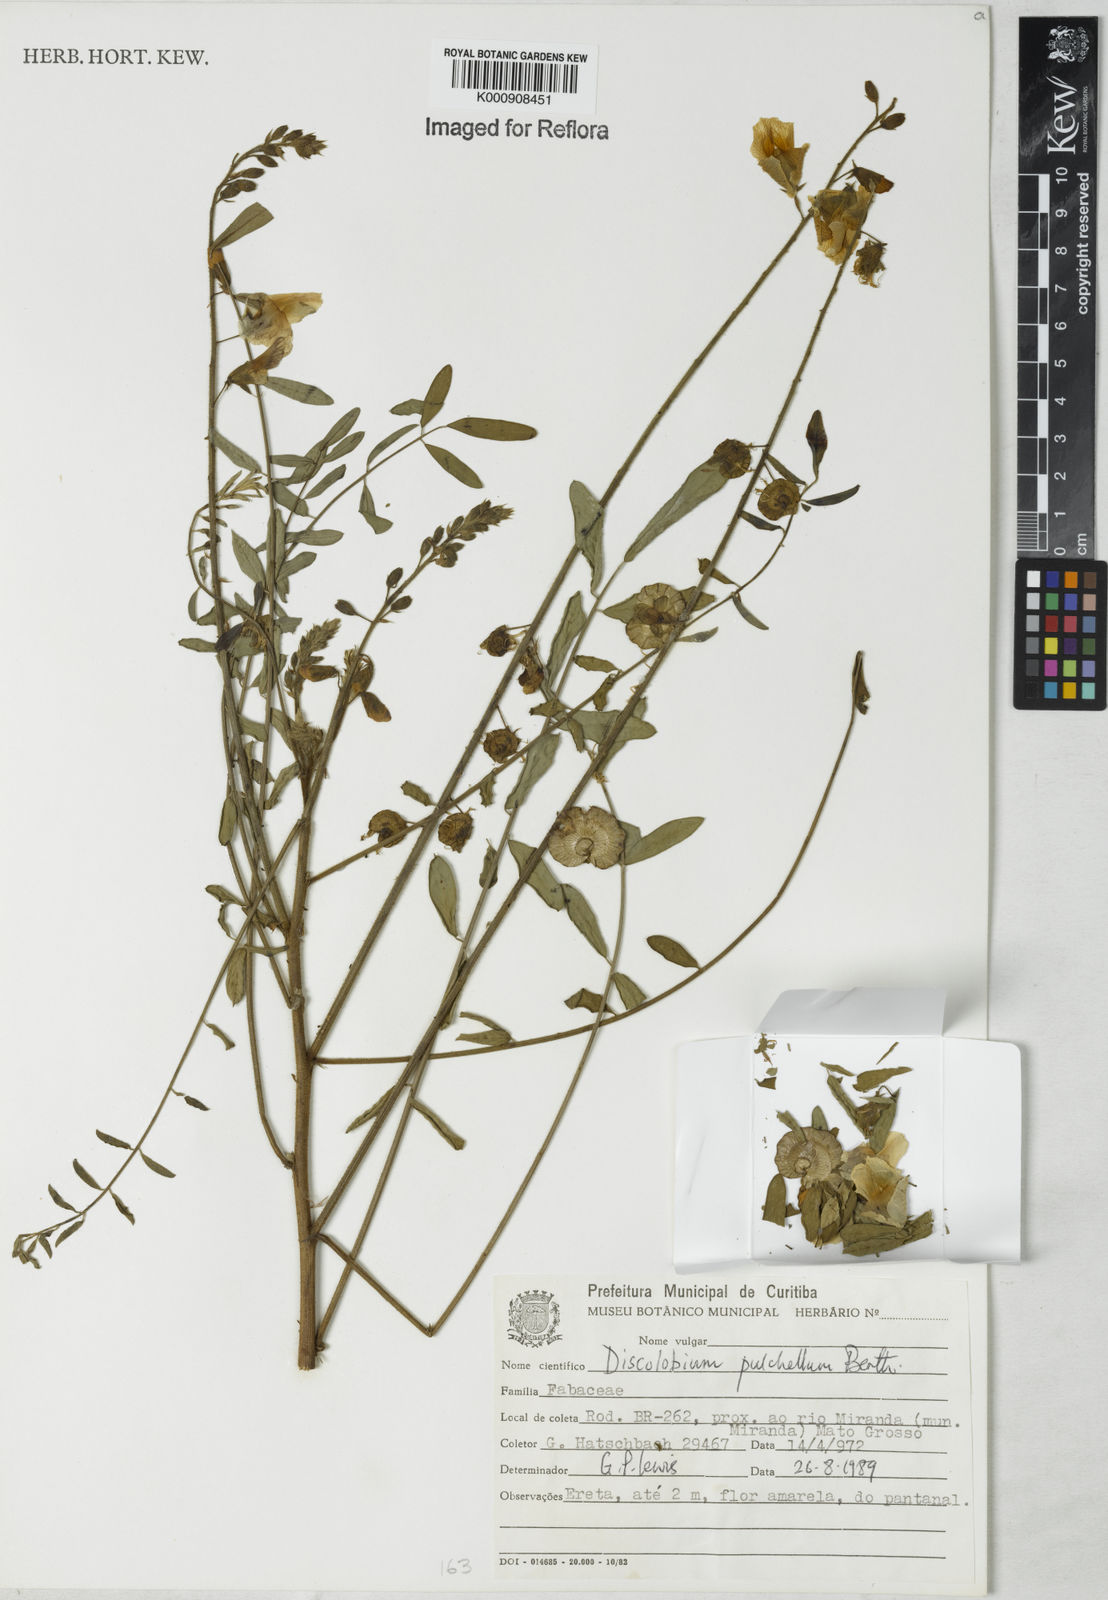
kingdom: Plantae
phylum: Tracheophyta
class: Magnoliopsida
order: Fabales
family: Fabaceae
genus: Discolobium
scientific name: Discolobium pulchellum
